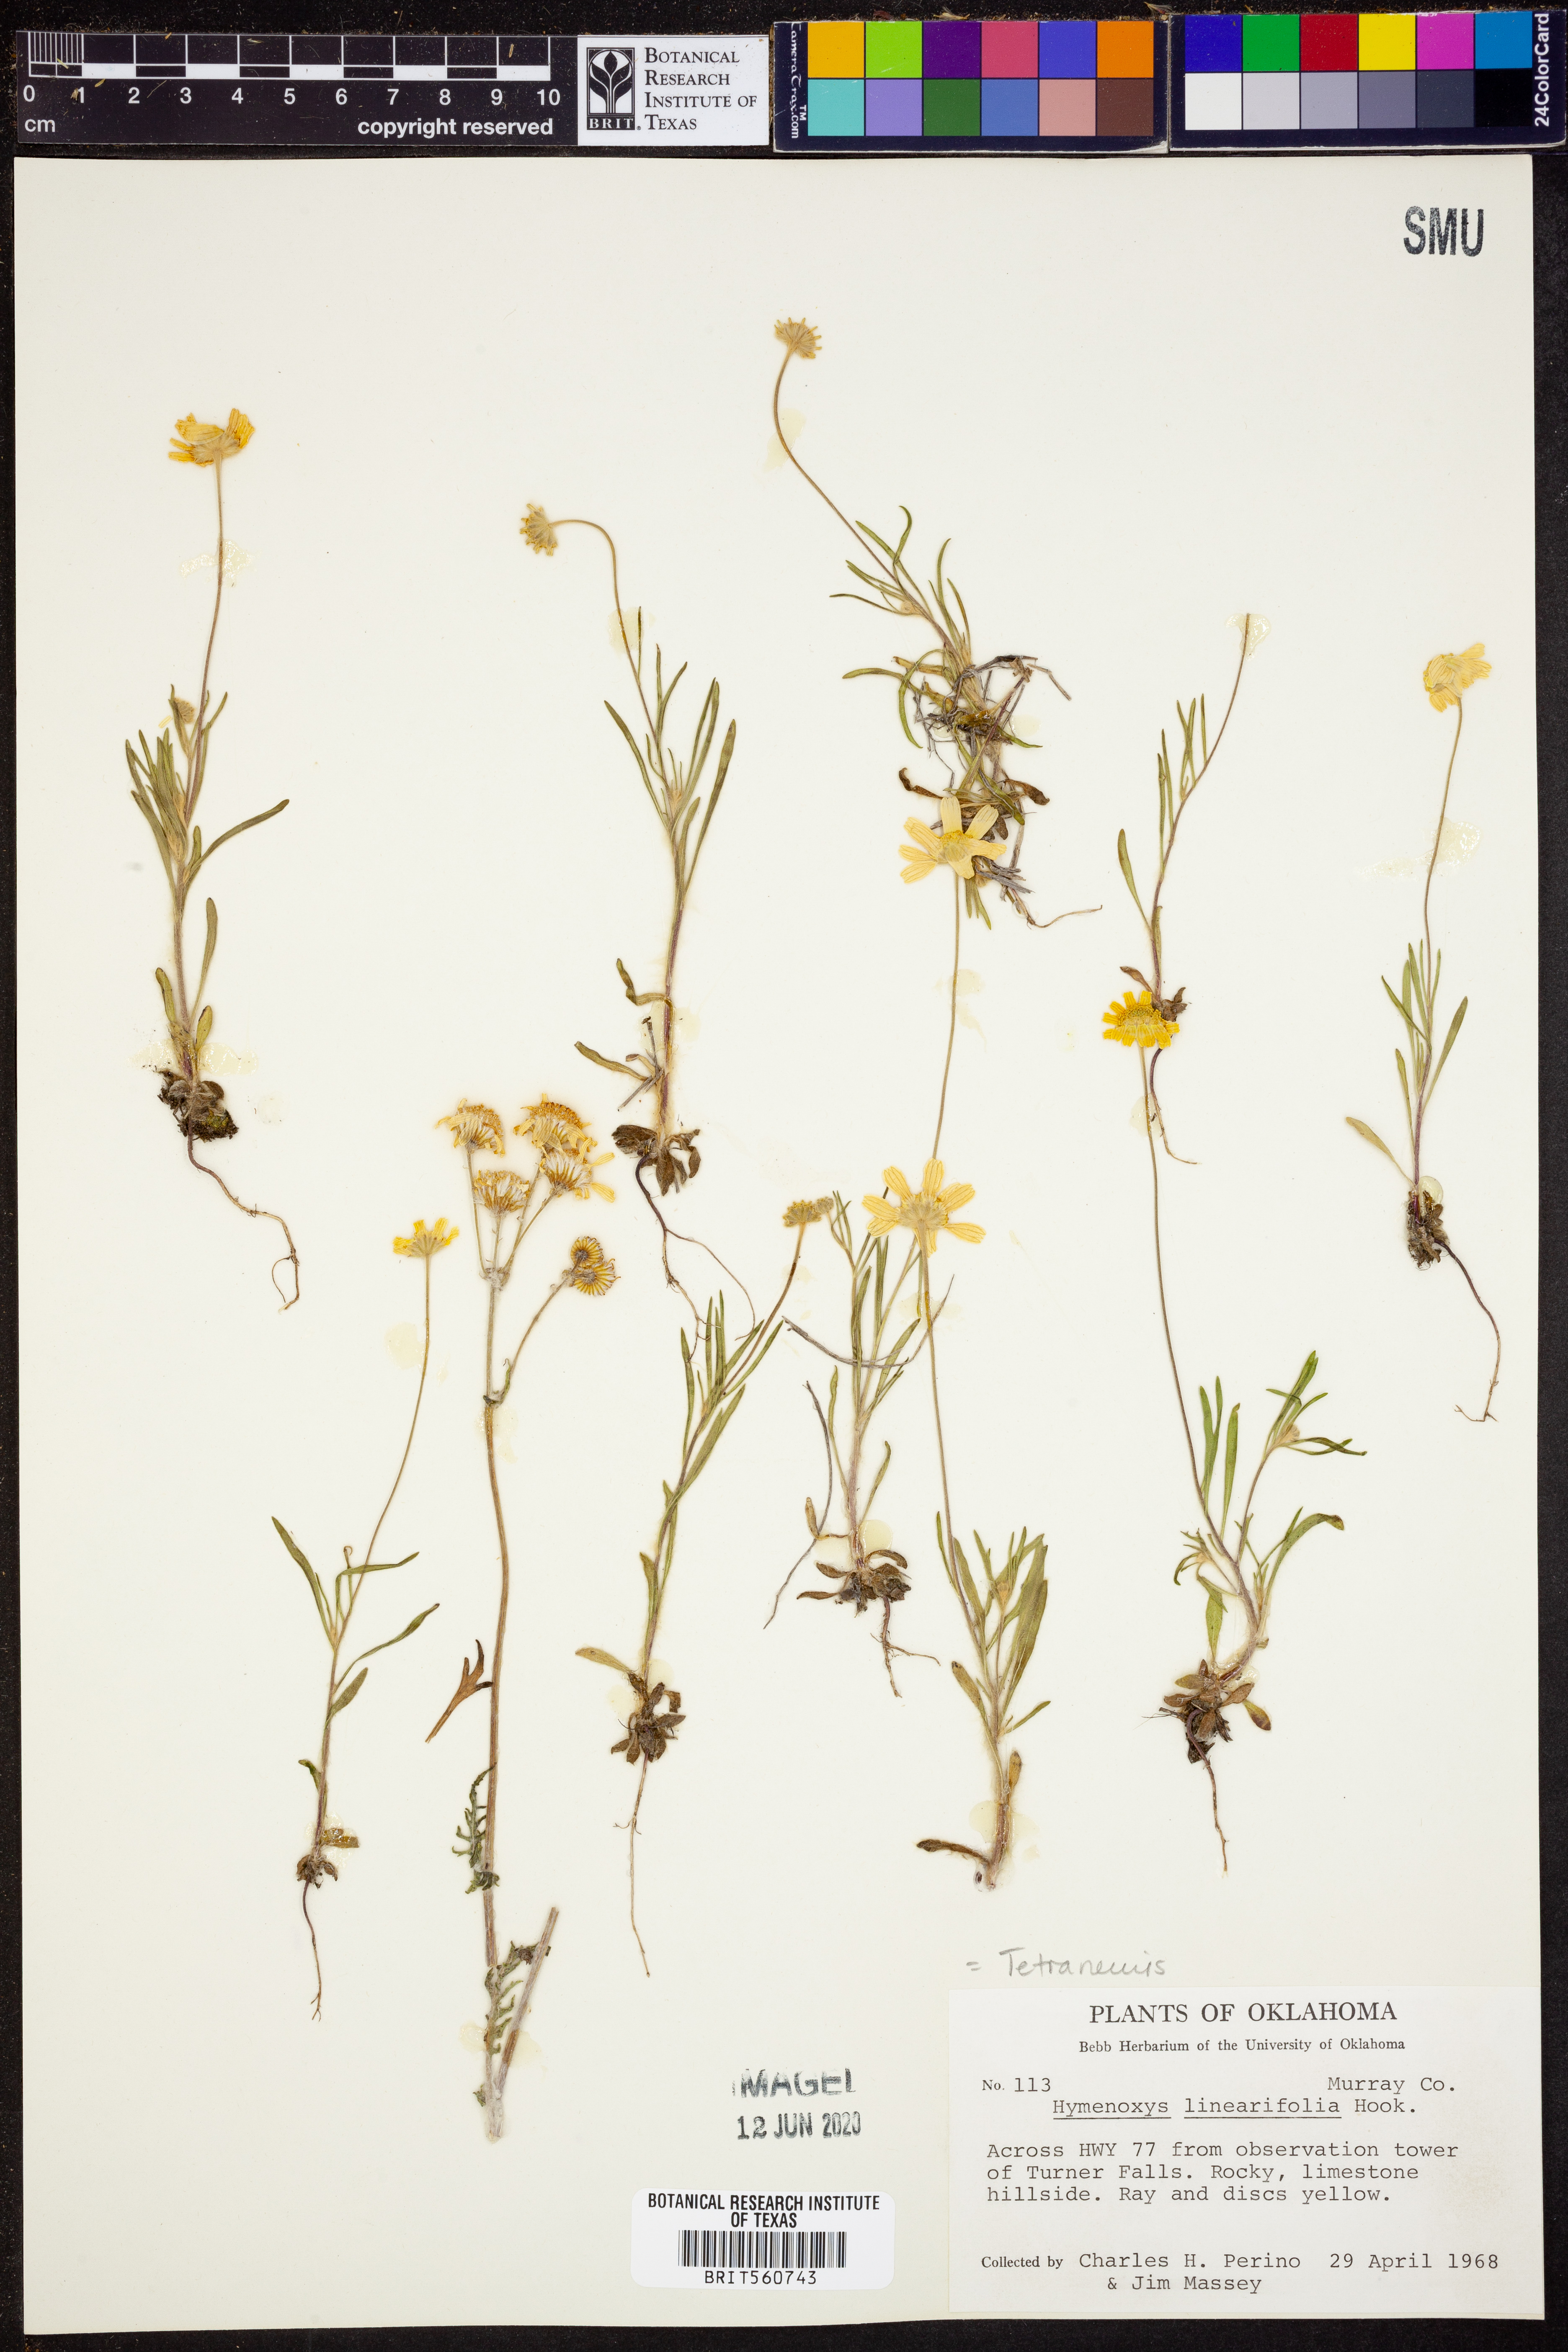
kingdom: Plantae
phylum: Tracheophyta
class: Magnoliopsida
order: Asterales
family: Asteraceae
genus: Tetraneuris
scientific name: Tetraneuris linearifolia
